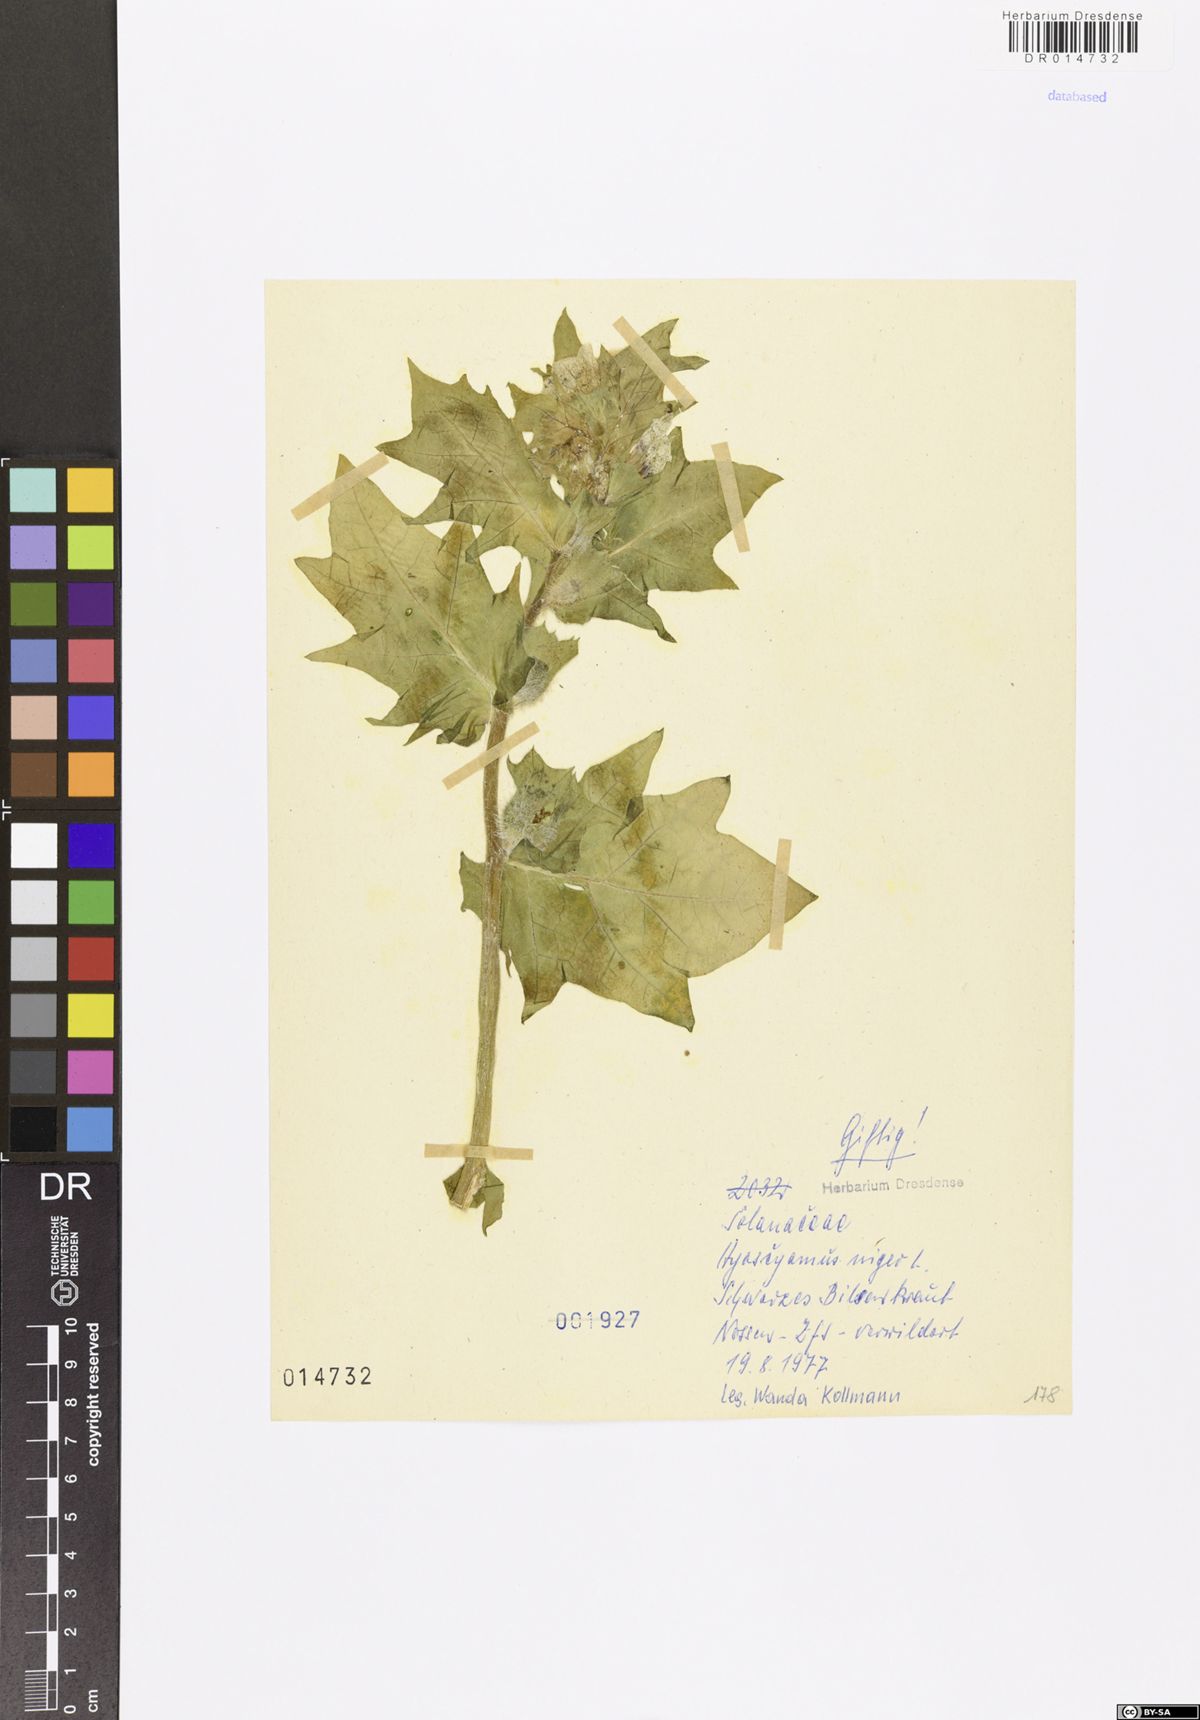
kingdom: Plantae
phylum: Tracheophyta
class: Magnoliopsida
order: Solanales
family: Solanaceae
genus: Hyoscyamus
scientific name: Hyoscyamus niger
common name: Henbane
